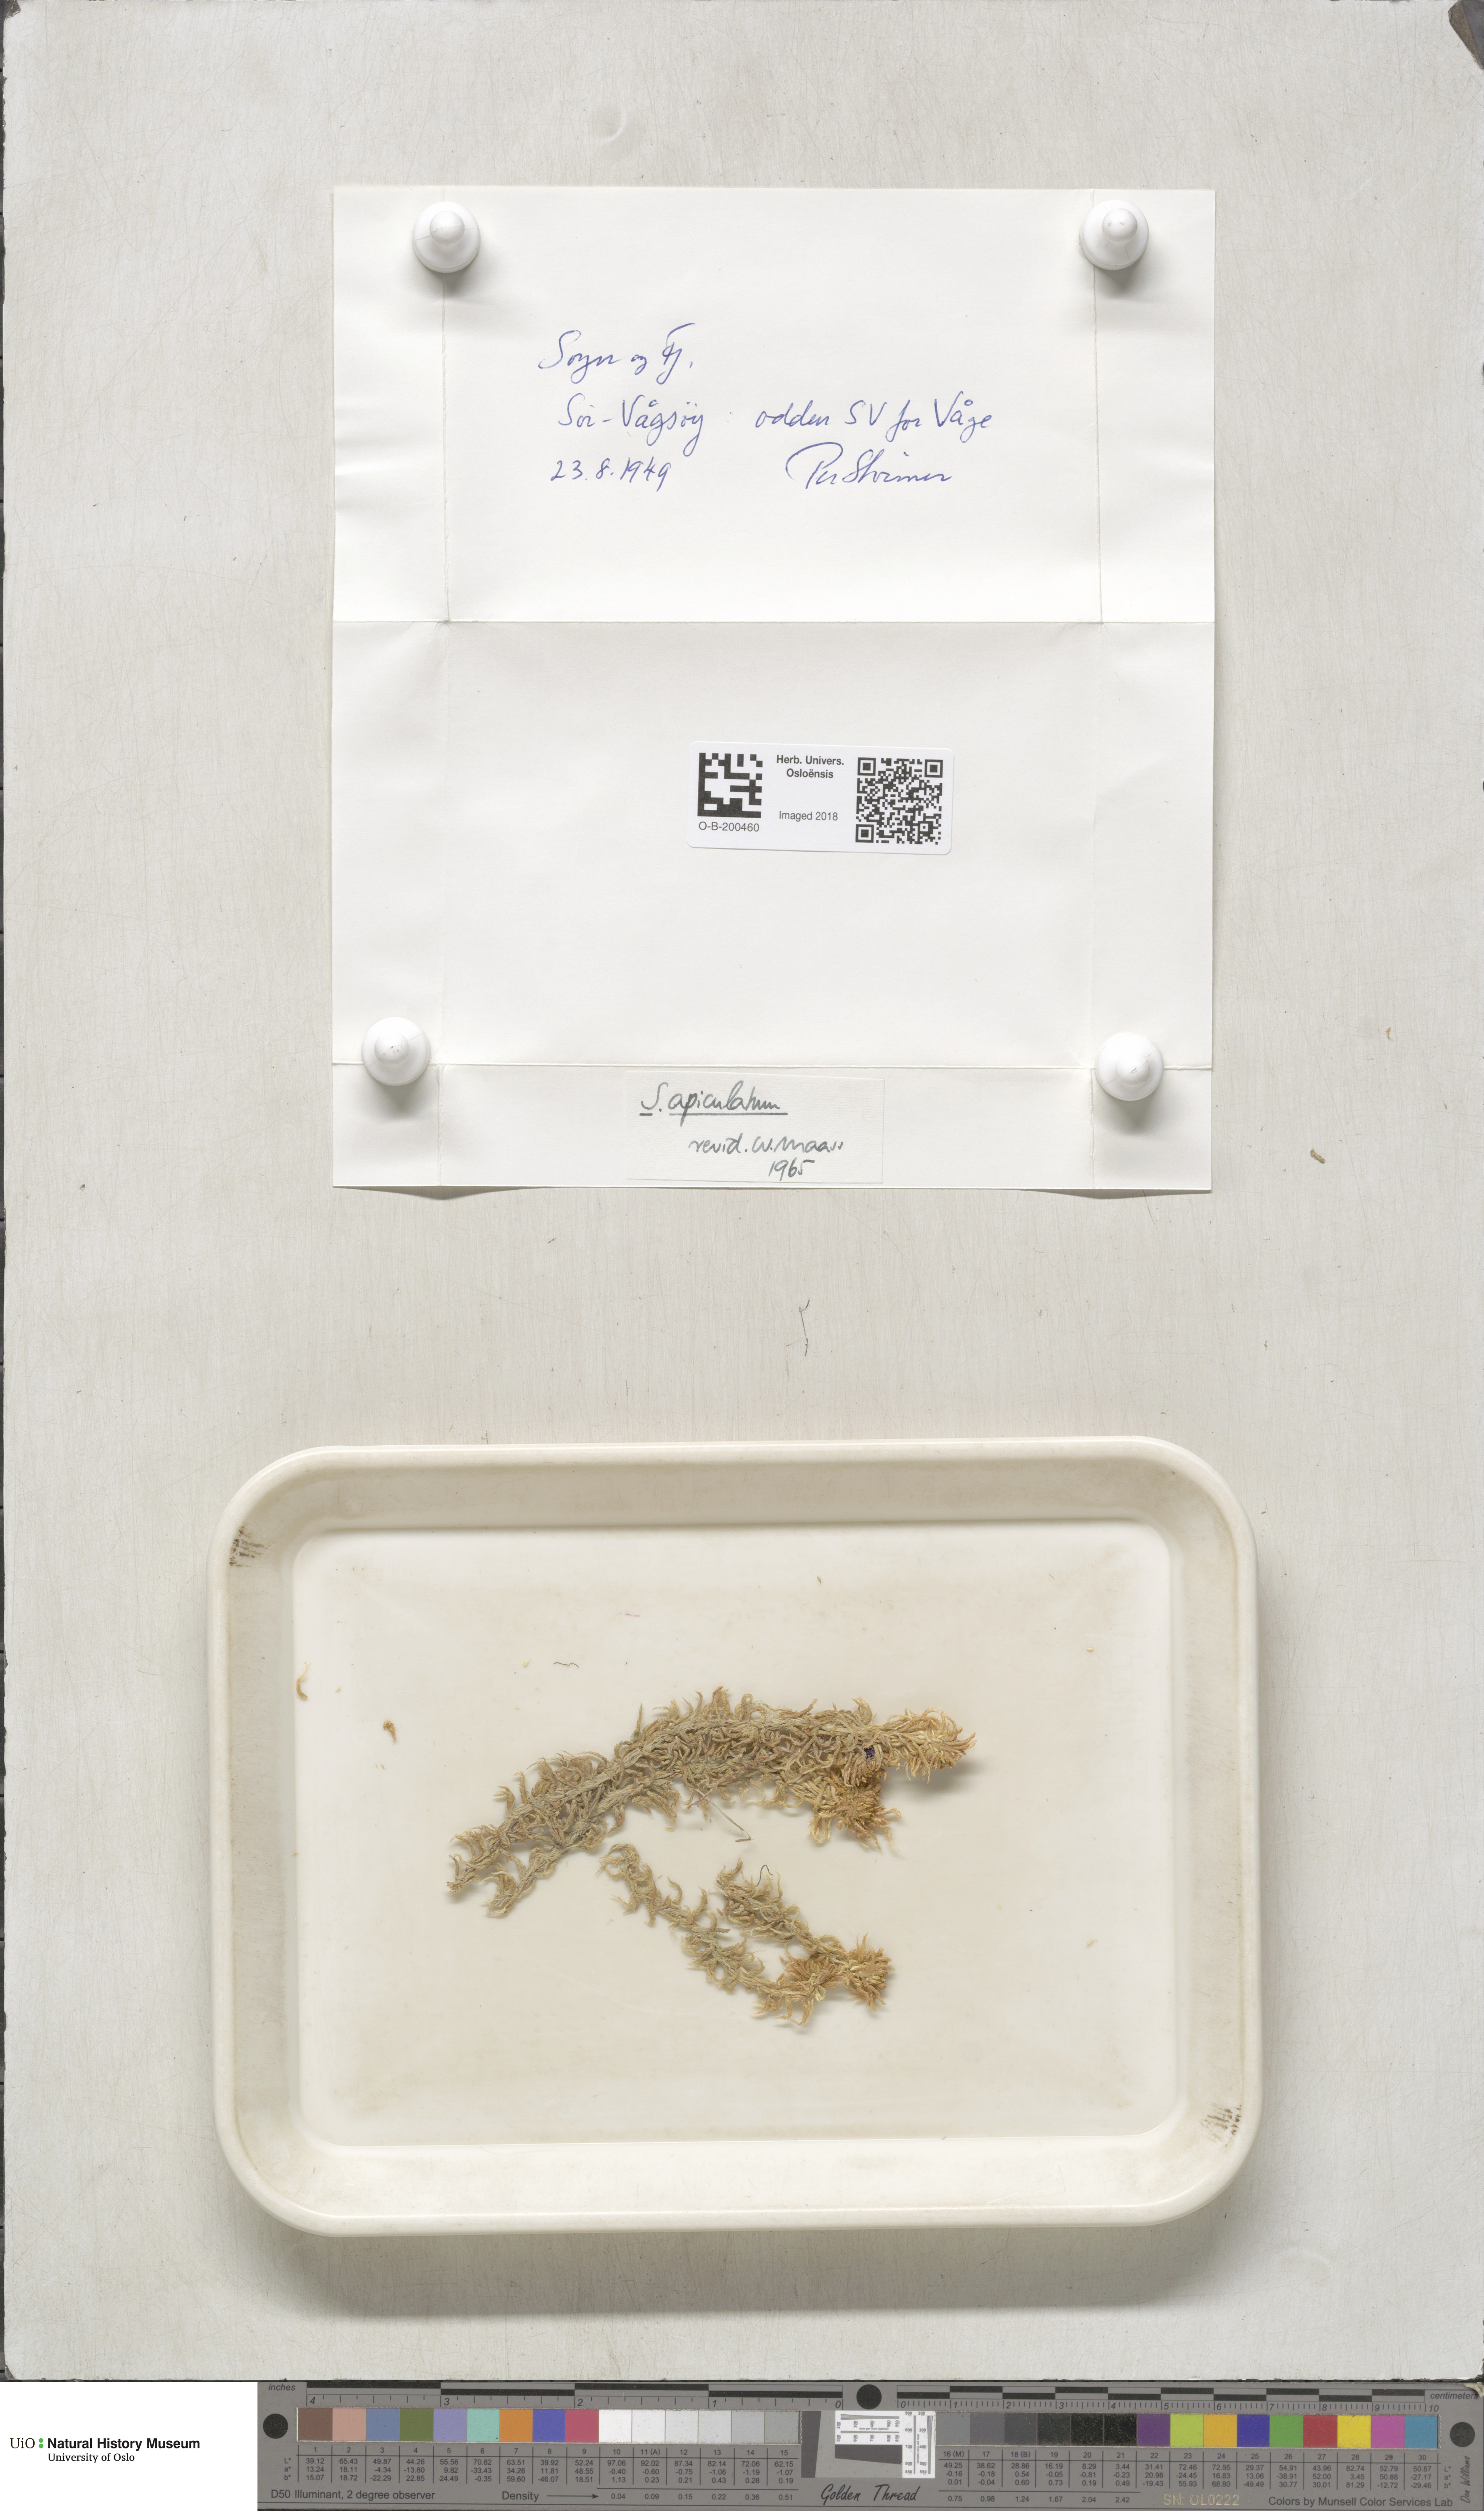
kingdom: Plantae
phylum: Bryophyta
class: Sphagnopsida
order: Sphagnales
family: Sphagnaceae
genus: Sphagnum
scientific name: Sphagnum fallax
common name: Flat-top peat moss
